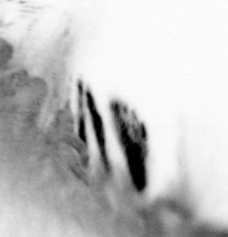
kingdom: Animalia
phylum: Arthropoda
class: Copepoda
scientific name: Copepoda
